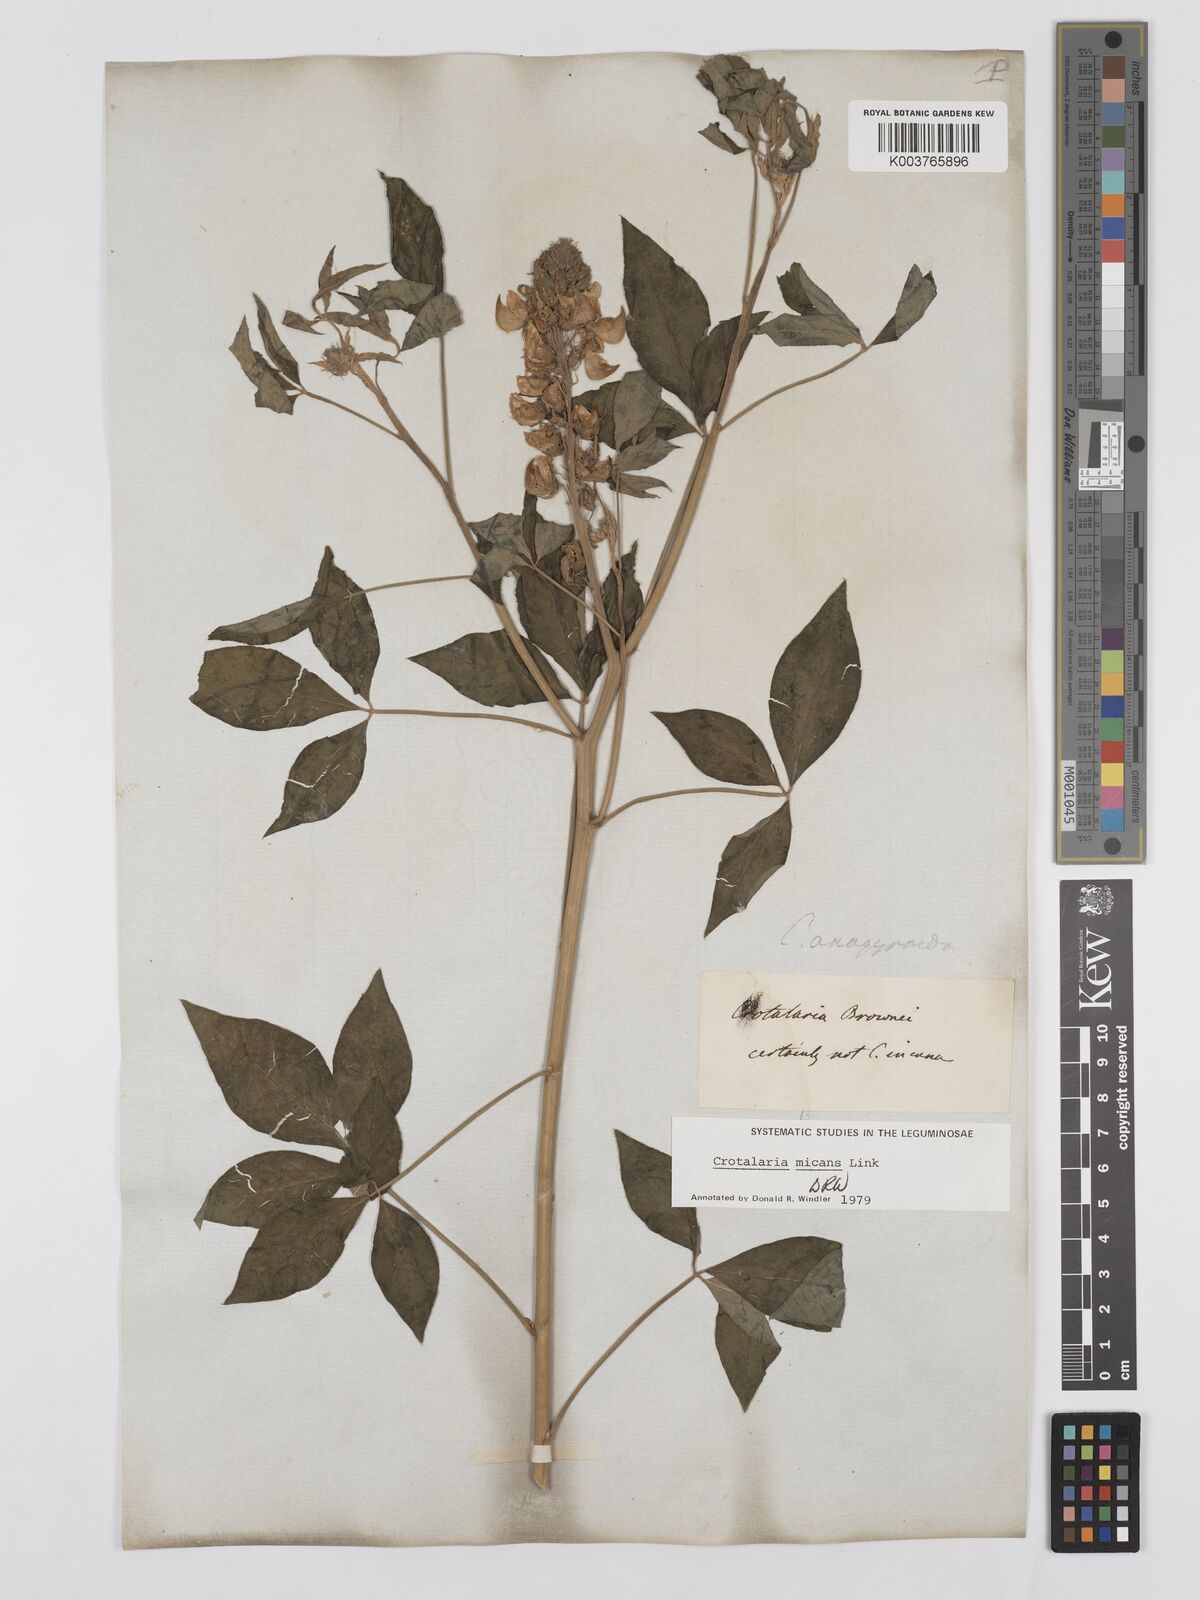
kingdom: Plantae
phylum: Tracheophyta
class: Magnoliopsida
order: Fabales
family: Fabaceae
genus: Crotalaria
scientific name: Crotalaria micans
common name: Caracas rattlebox
